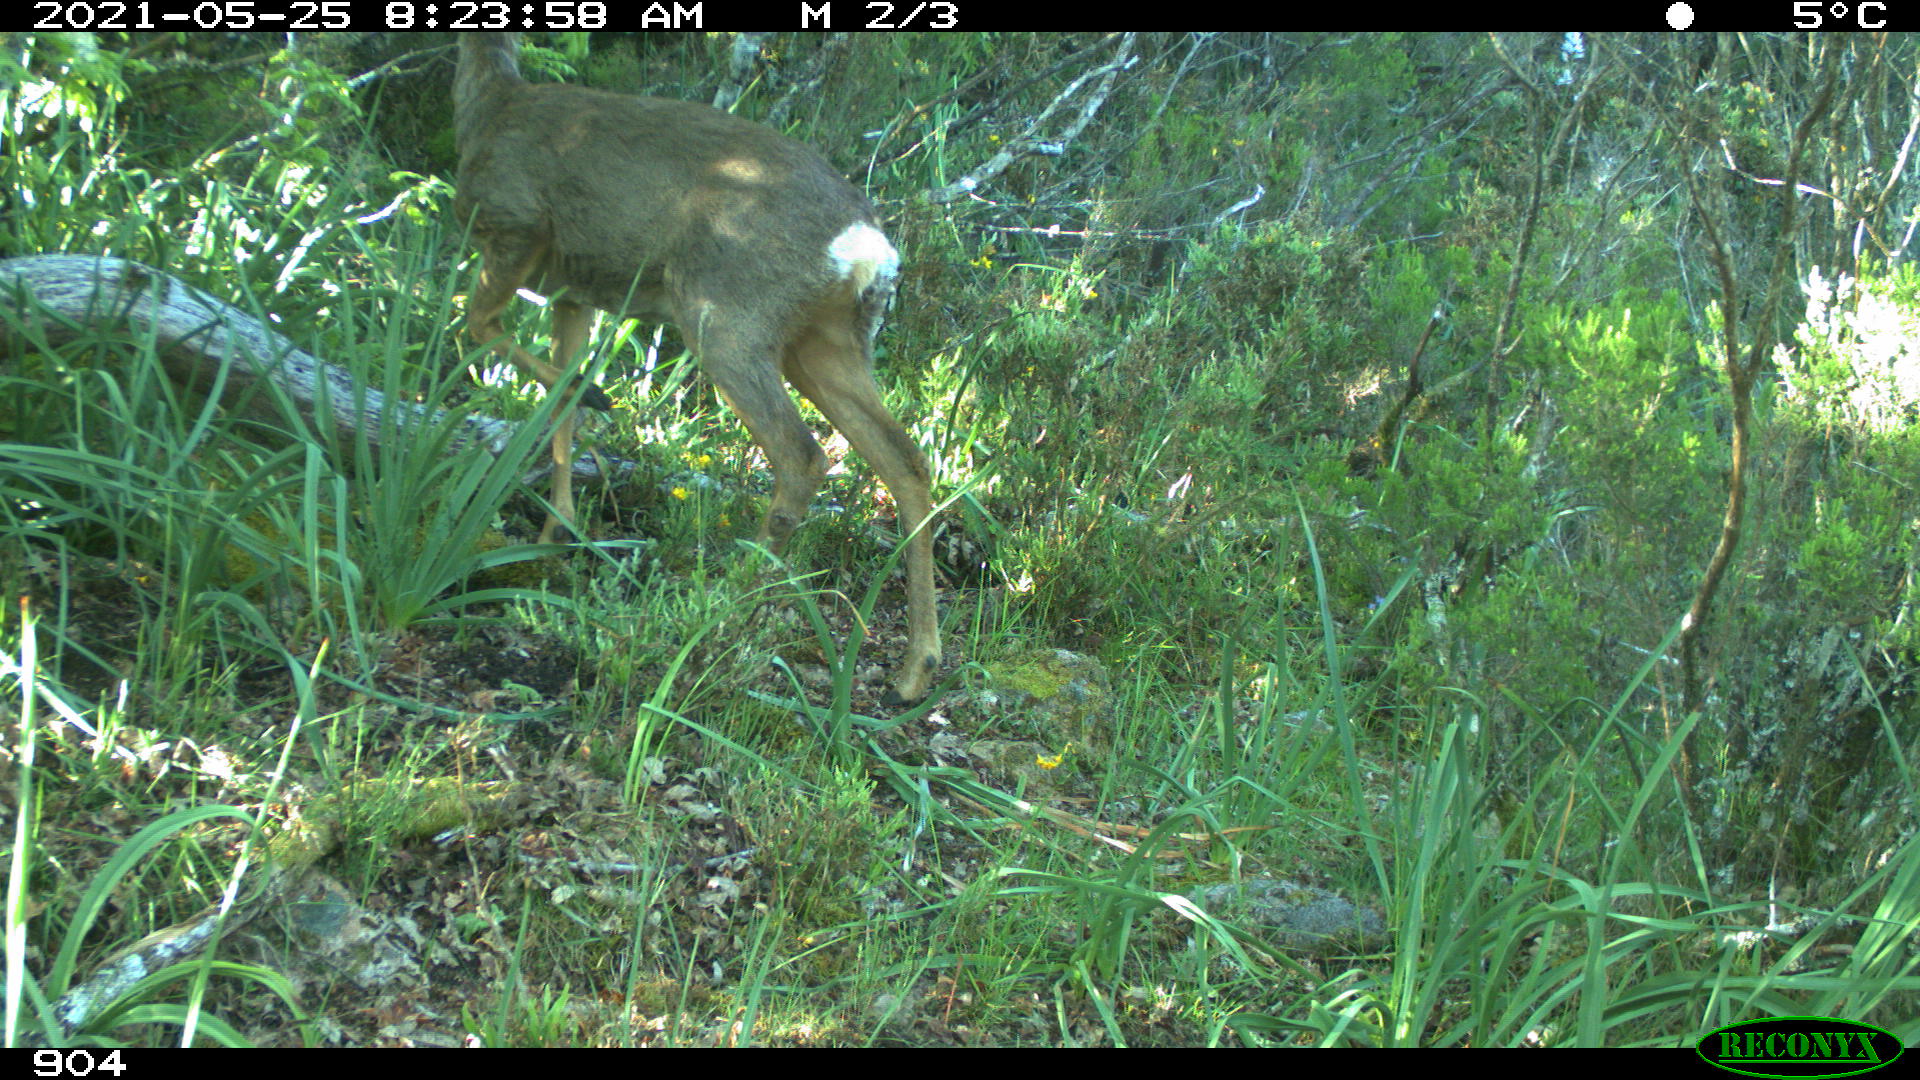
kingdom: Animalia
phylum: Chordata
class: Mammalia
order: Artiodactyla
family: Cervidae
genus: Capreolus
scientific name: Capreolus capreolus
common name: Western roe deer
